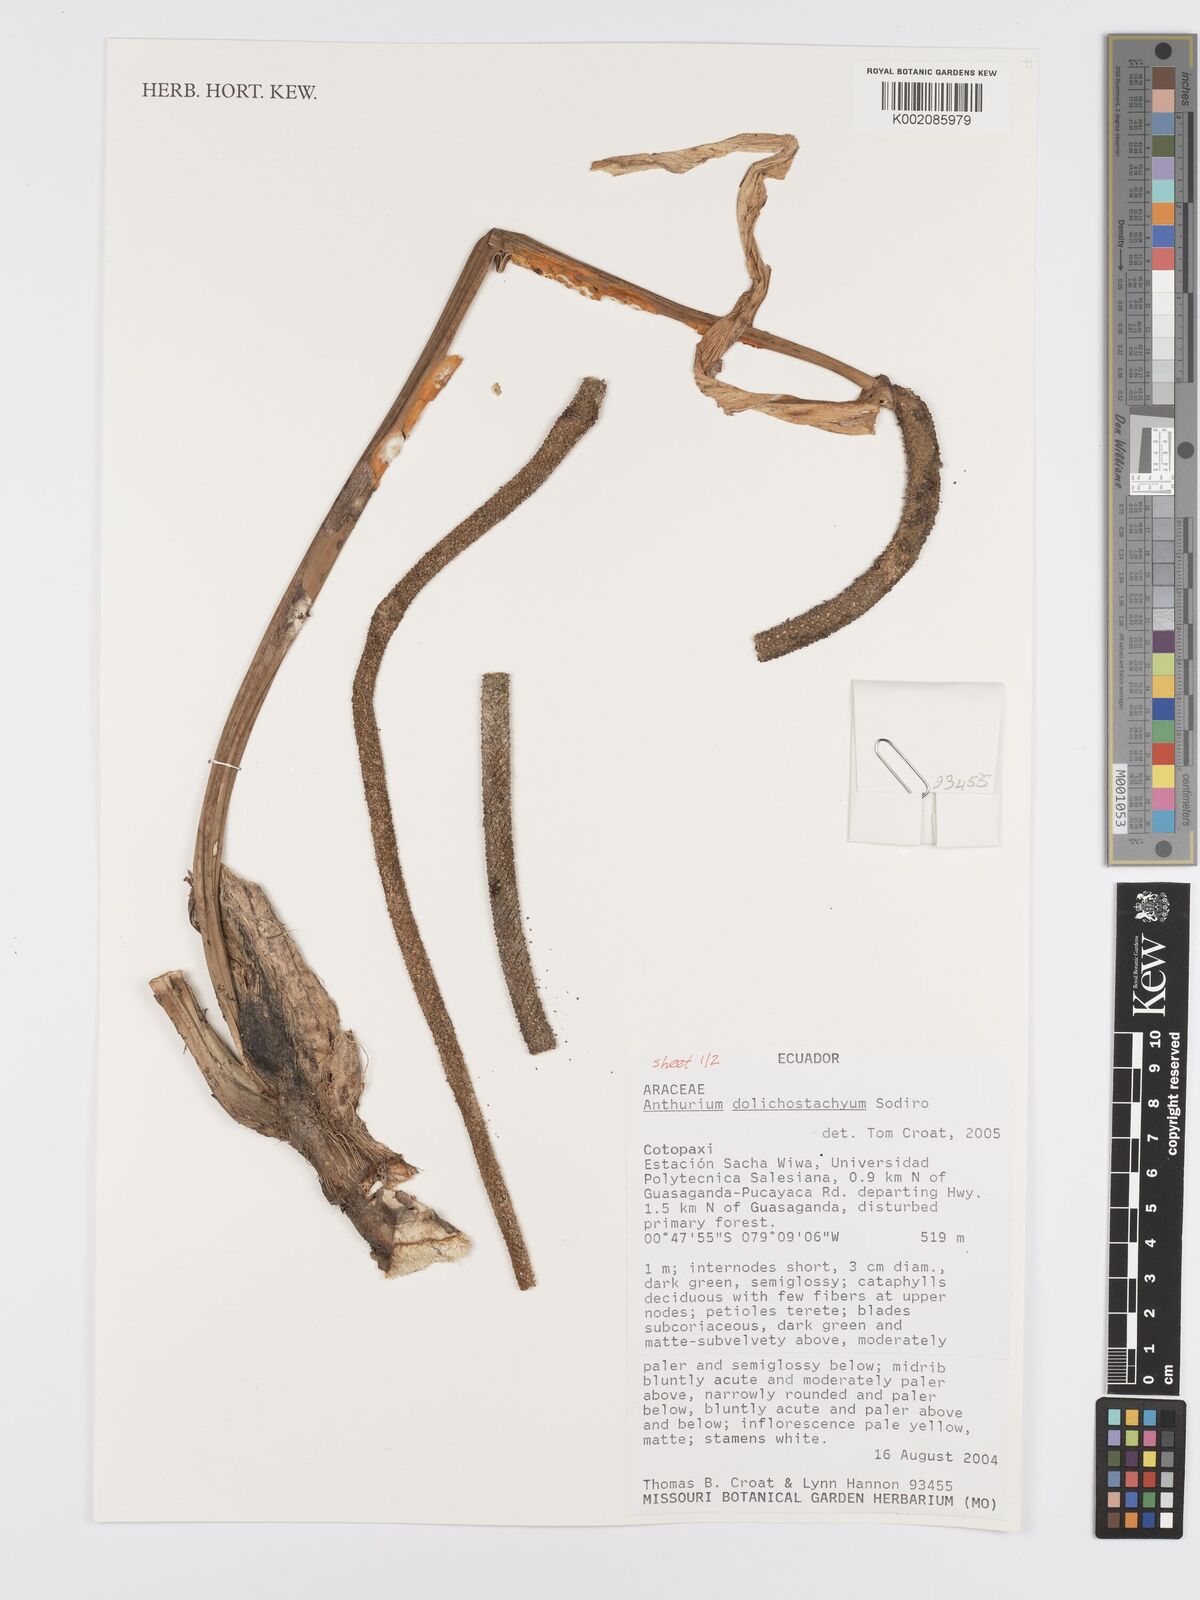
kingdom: Plantae
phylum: Tracheophyta
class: Liliopsida
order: Alismatales
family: Araceae
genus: Anthurium
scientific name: Anthurium dolichostachyum
